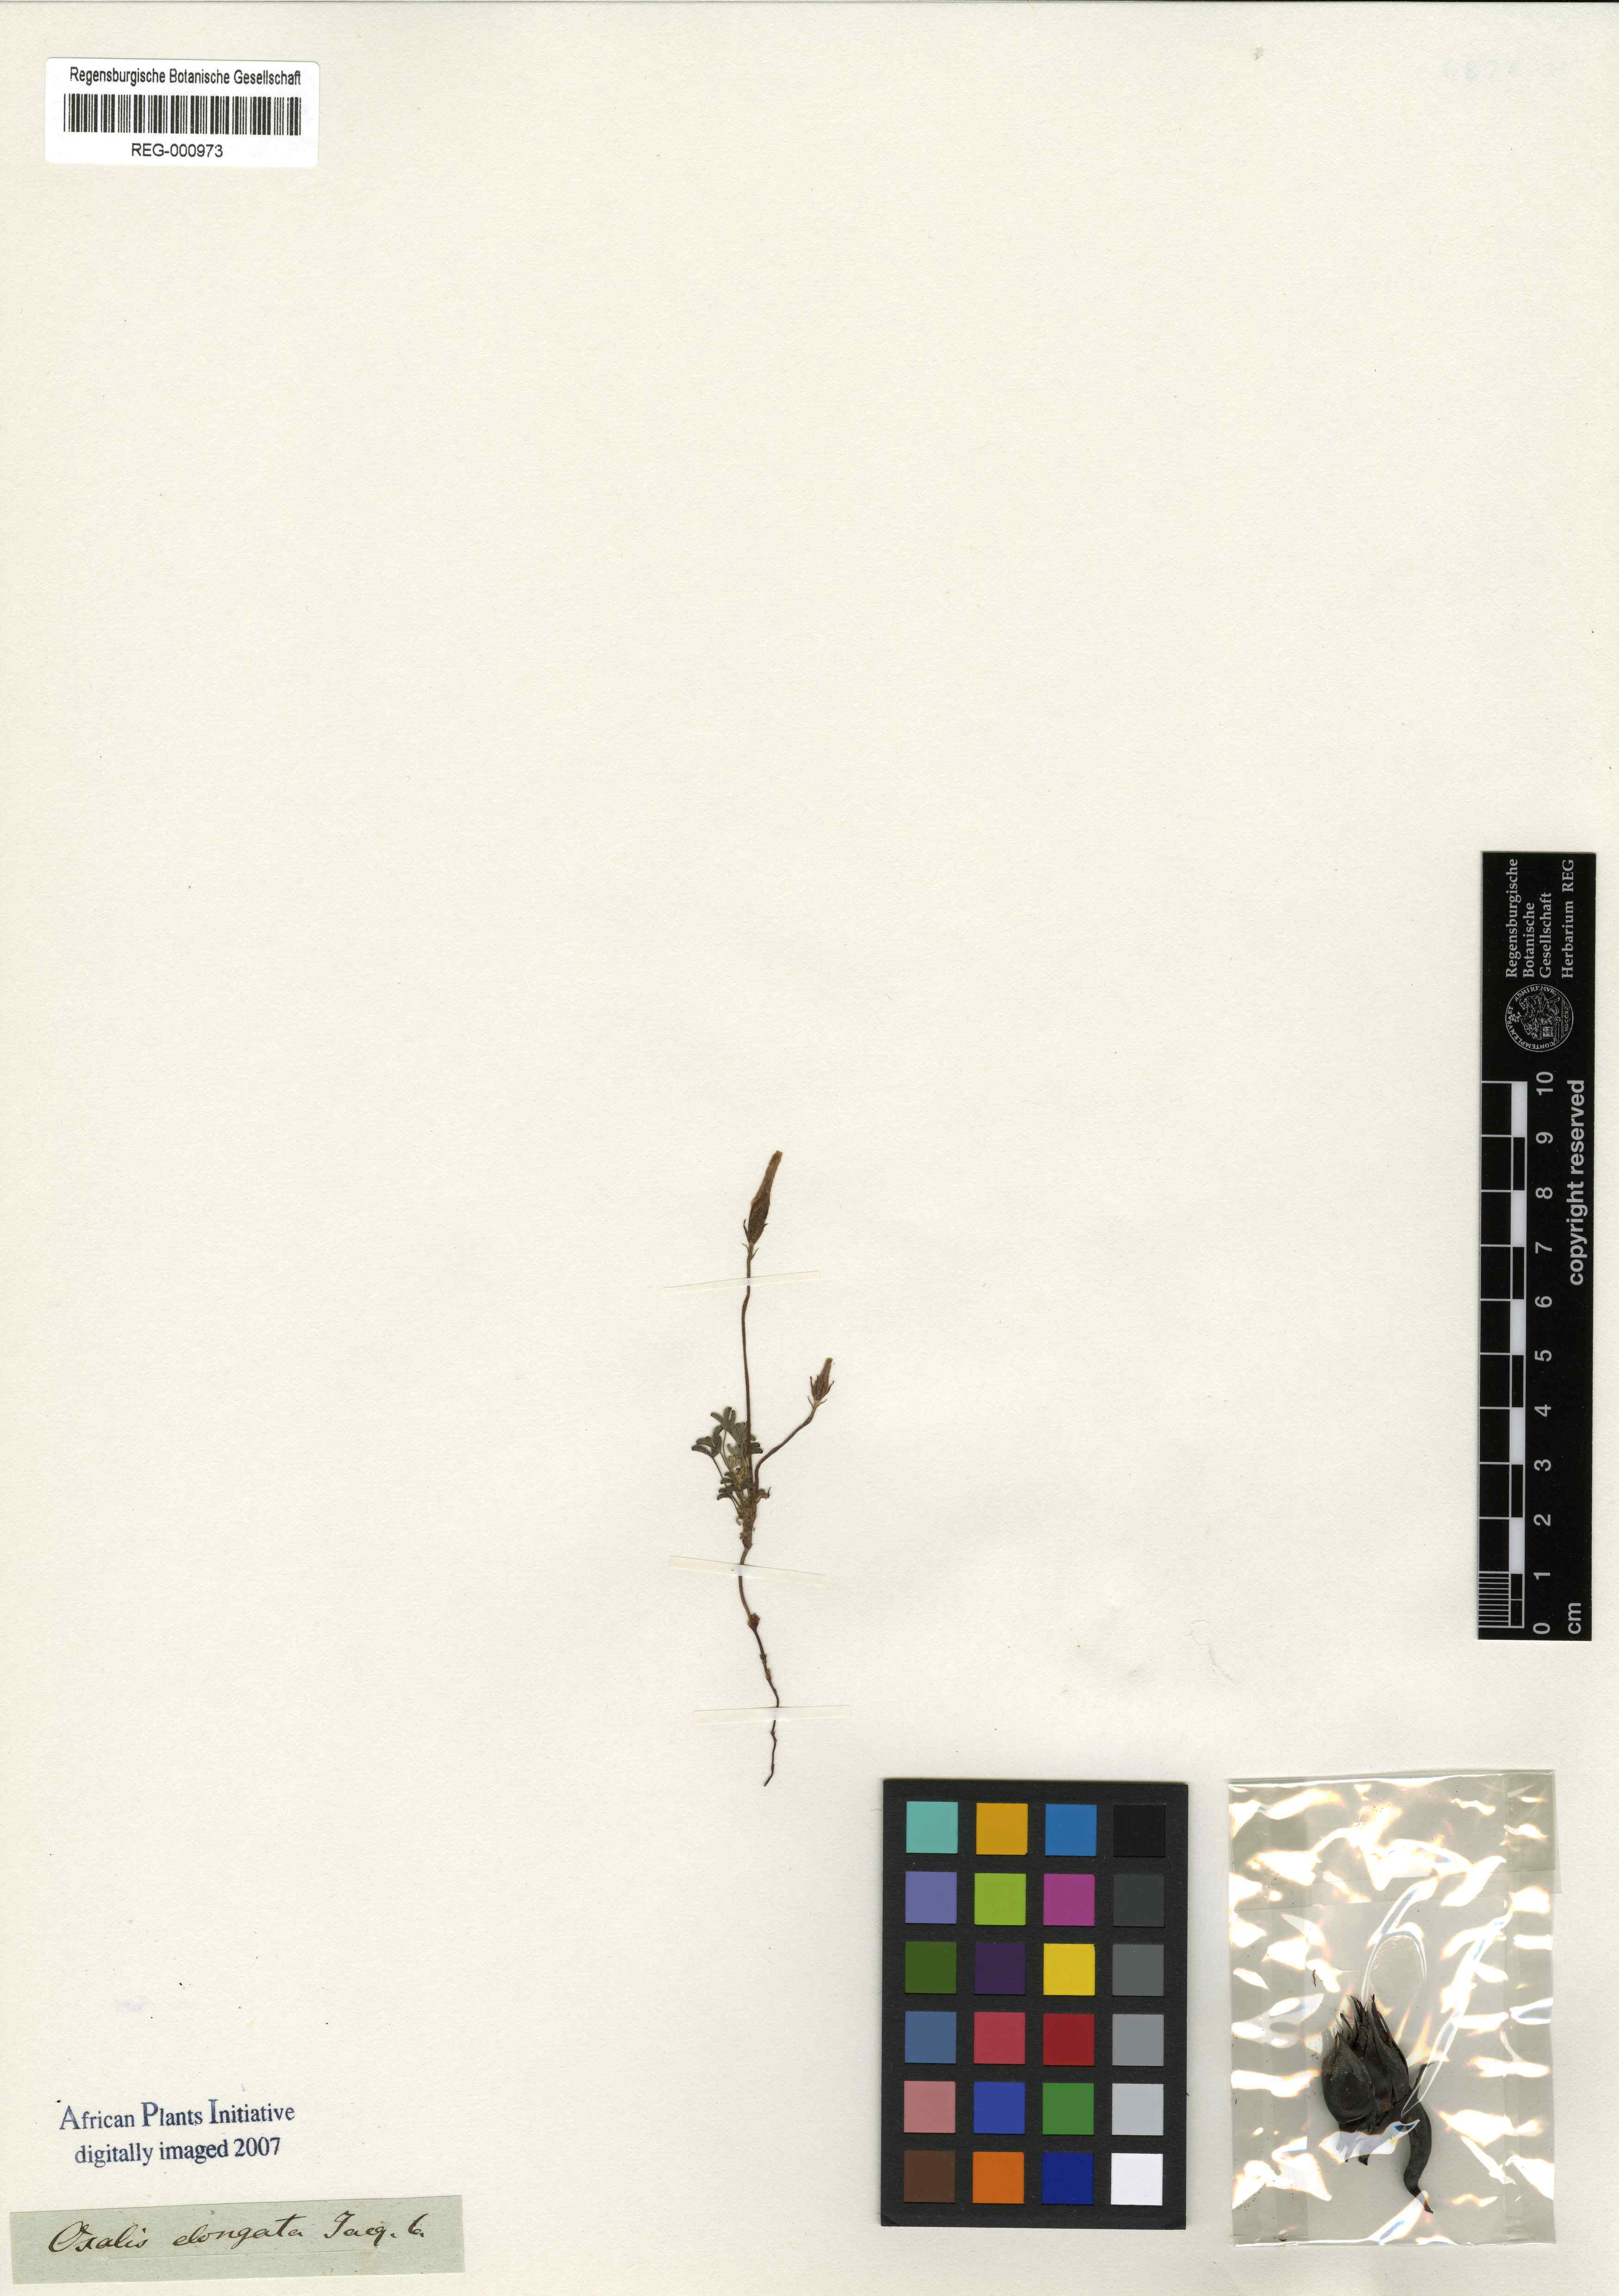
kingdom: Plantae
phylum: Tracheophyta
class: Magnoliopsida
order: Oxalidales
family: Oxalidaceae
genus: Oxalis
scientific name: Oxalis versicolor
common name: Peppermint rock oxalis
